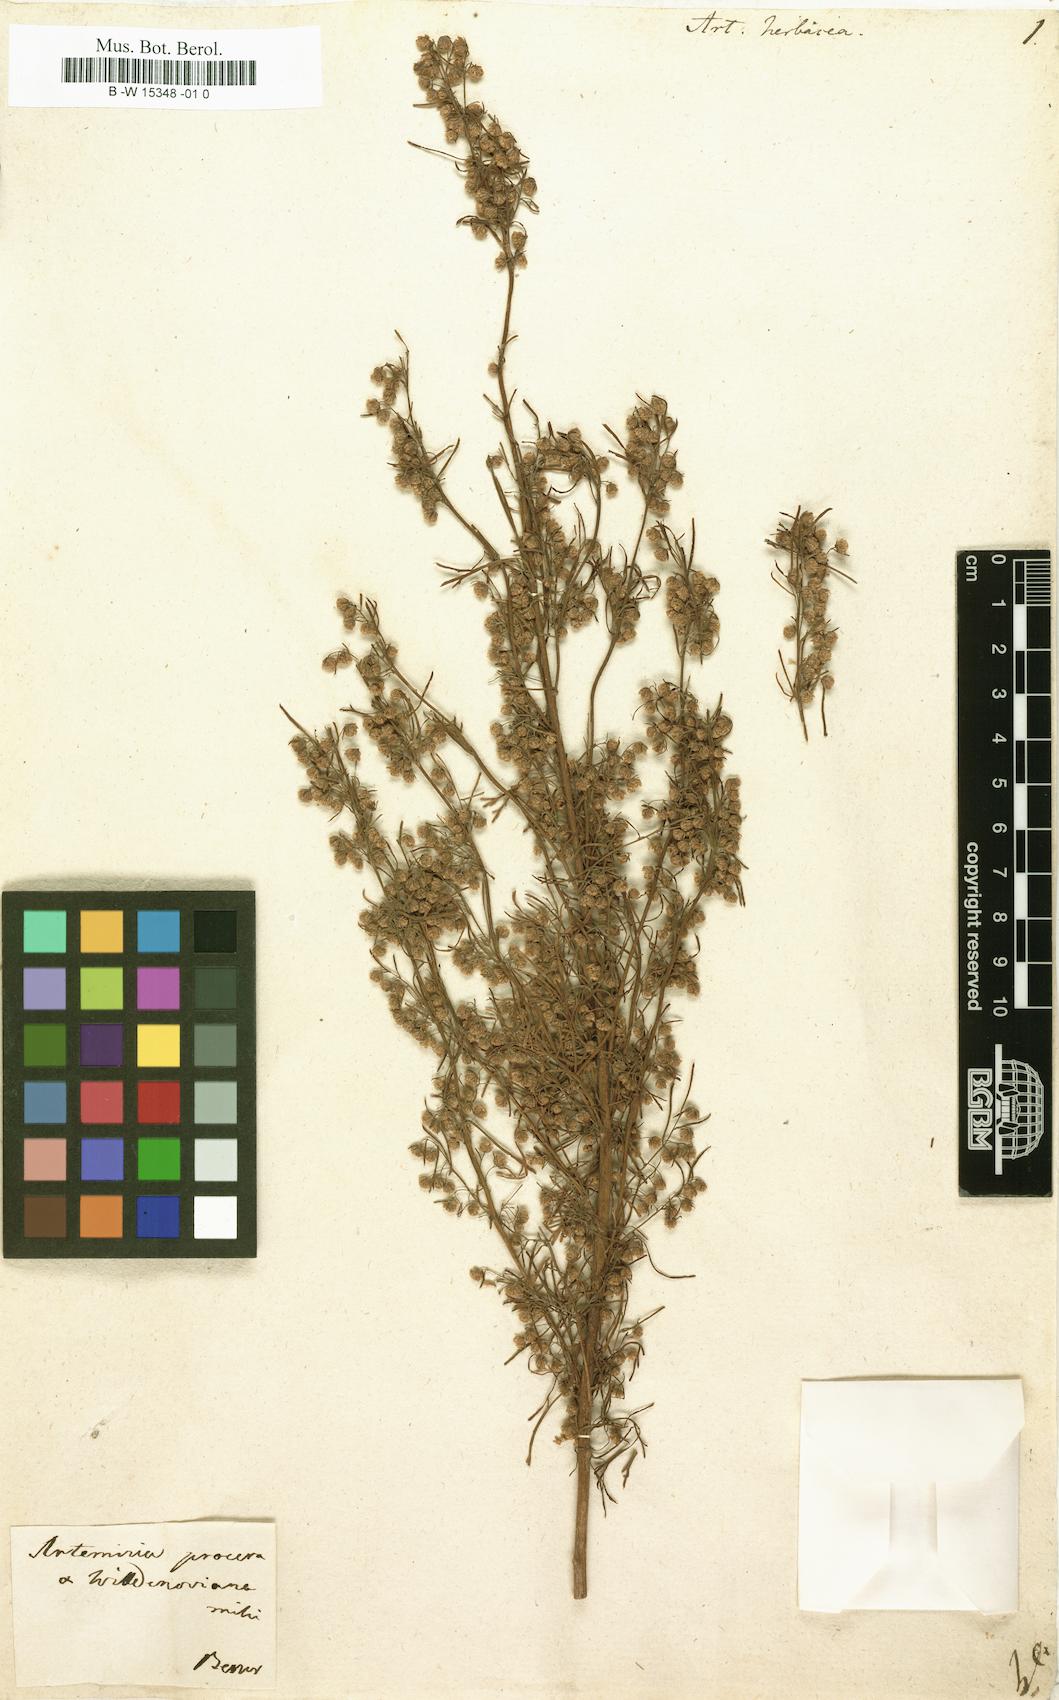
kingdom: Plantae
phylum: Tracheophyta
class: Magnoliopsida
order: Asterales
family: Asteraceae
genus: Artemisia
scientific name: Artemisia abrotanum
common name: Southernwood
